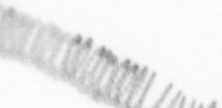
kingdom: Chromista
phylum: Ochrophyta
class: Bacillariophyceae
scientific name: Bacillariophyceae
